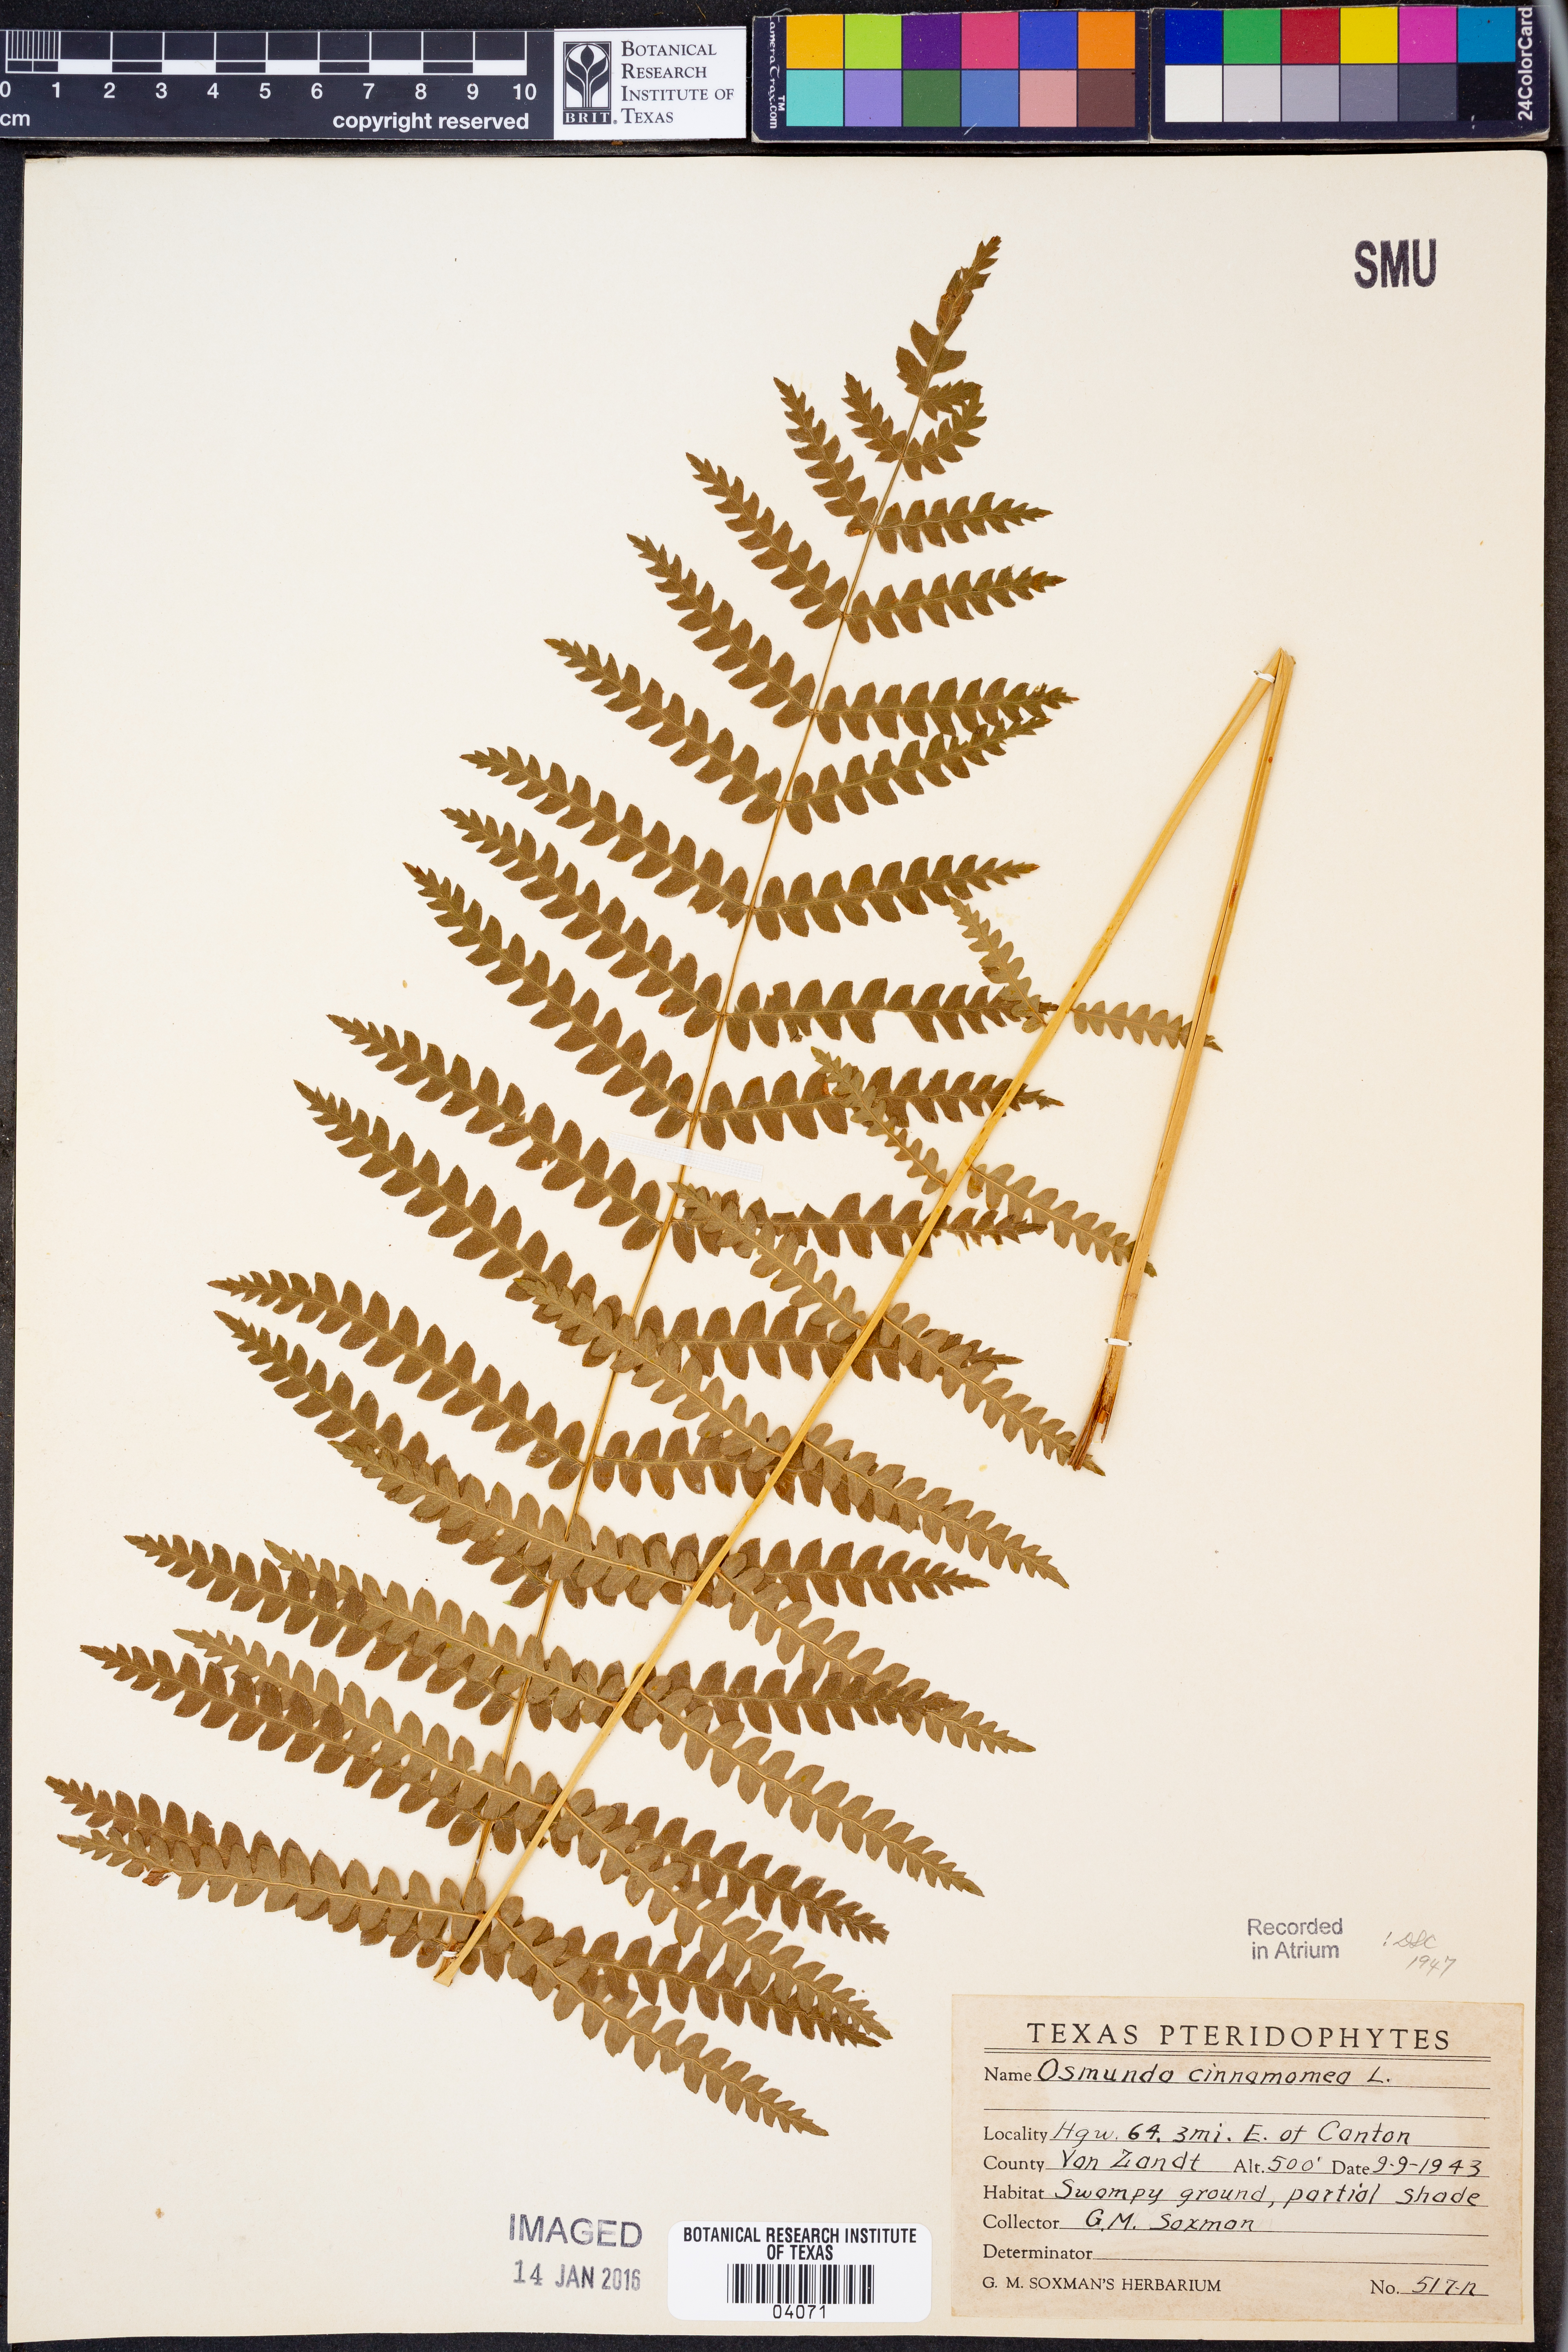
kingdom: Plantae
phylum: Tracheophyta
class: Polypodiopsida
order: Osmundales
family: Osmundaceae
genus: Osmundastrum
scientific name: Osmundastrum cinnamomeum
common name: Cinnamon fern
